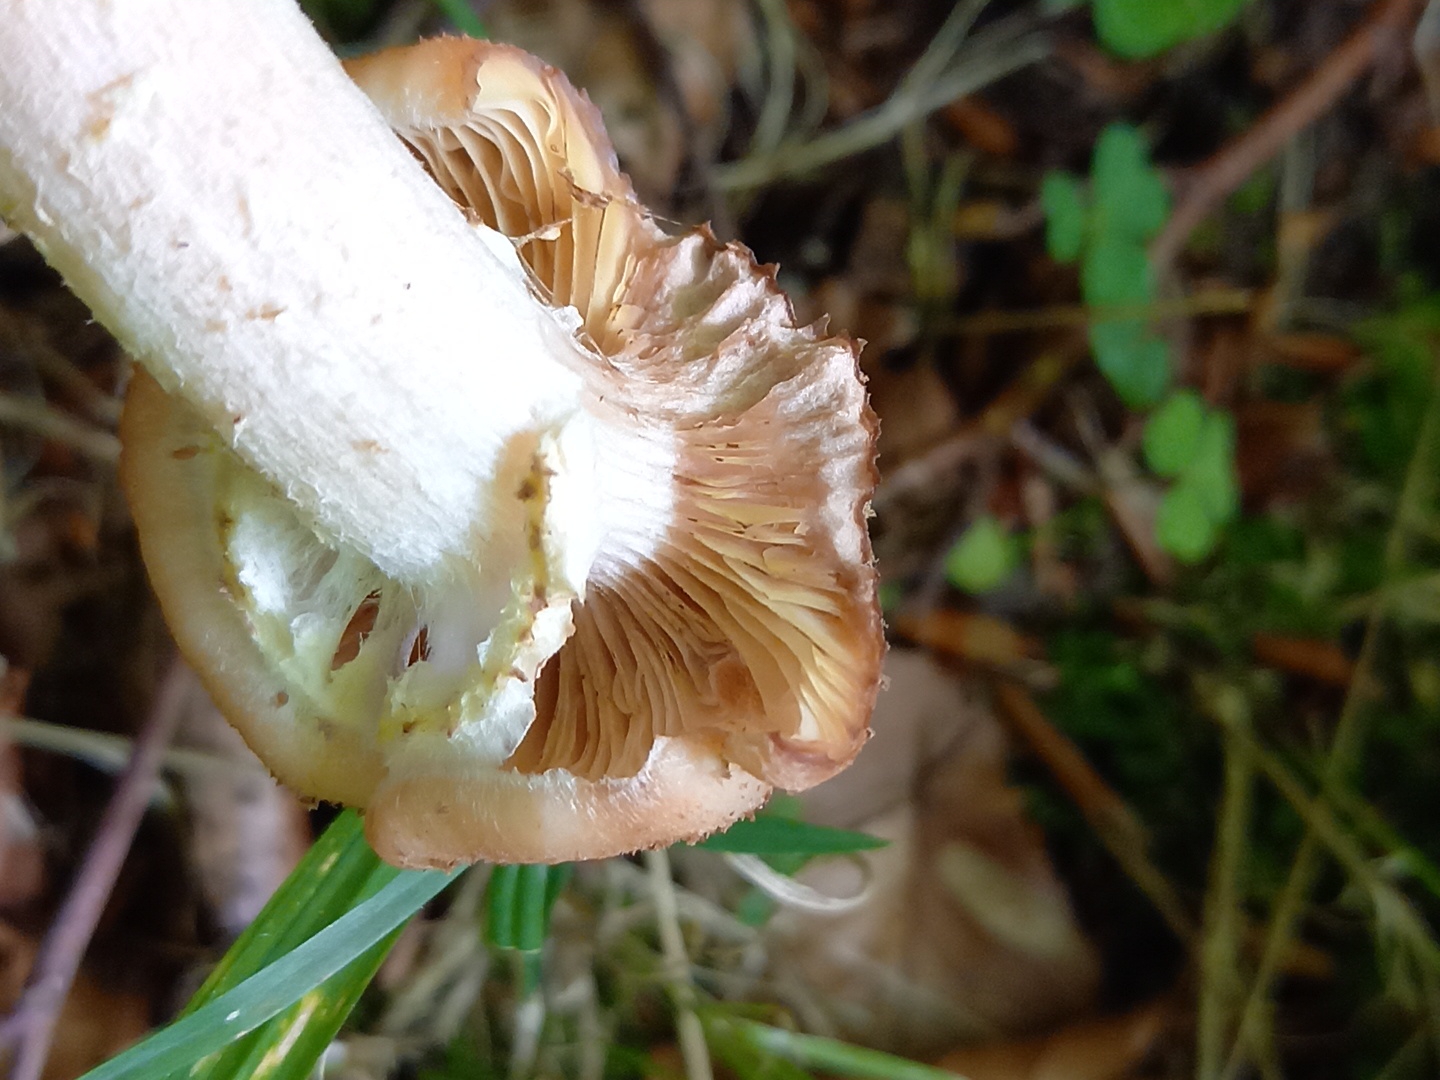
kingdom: Fungi
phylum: Basidiomycota
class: Agaricomycetes
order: Agaricales
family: Physalacriaceae
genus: Armillaria
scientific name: Armillaria lutea
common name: køllestokket honningsvamp
